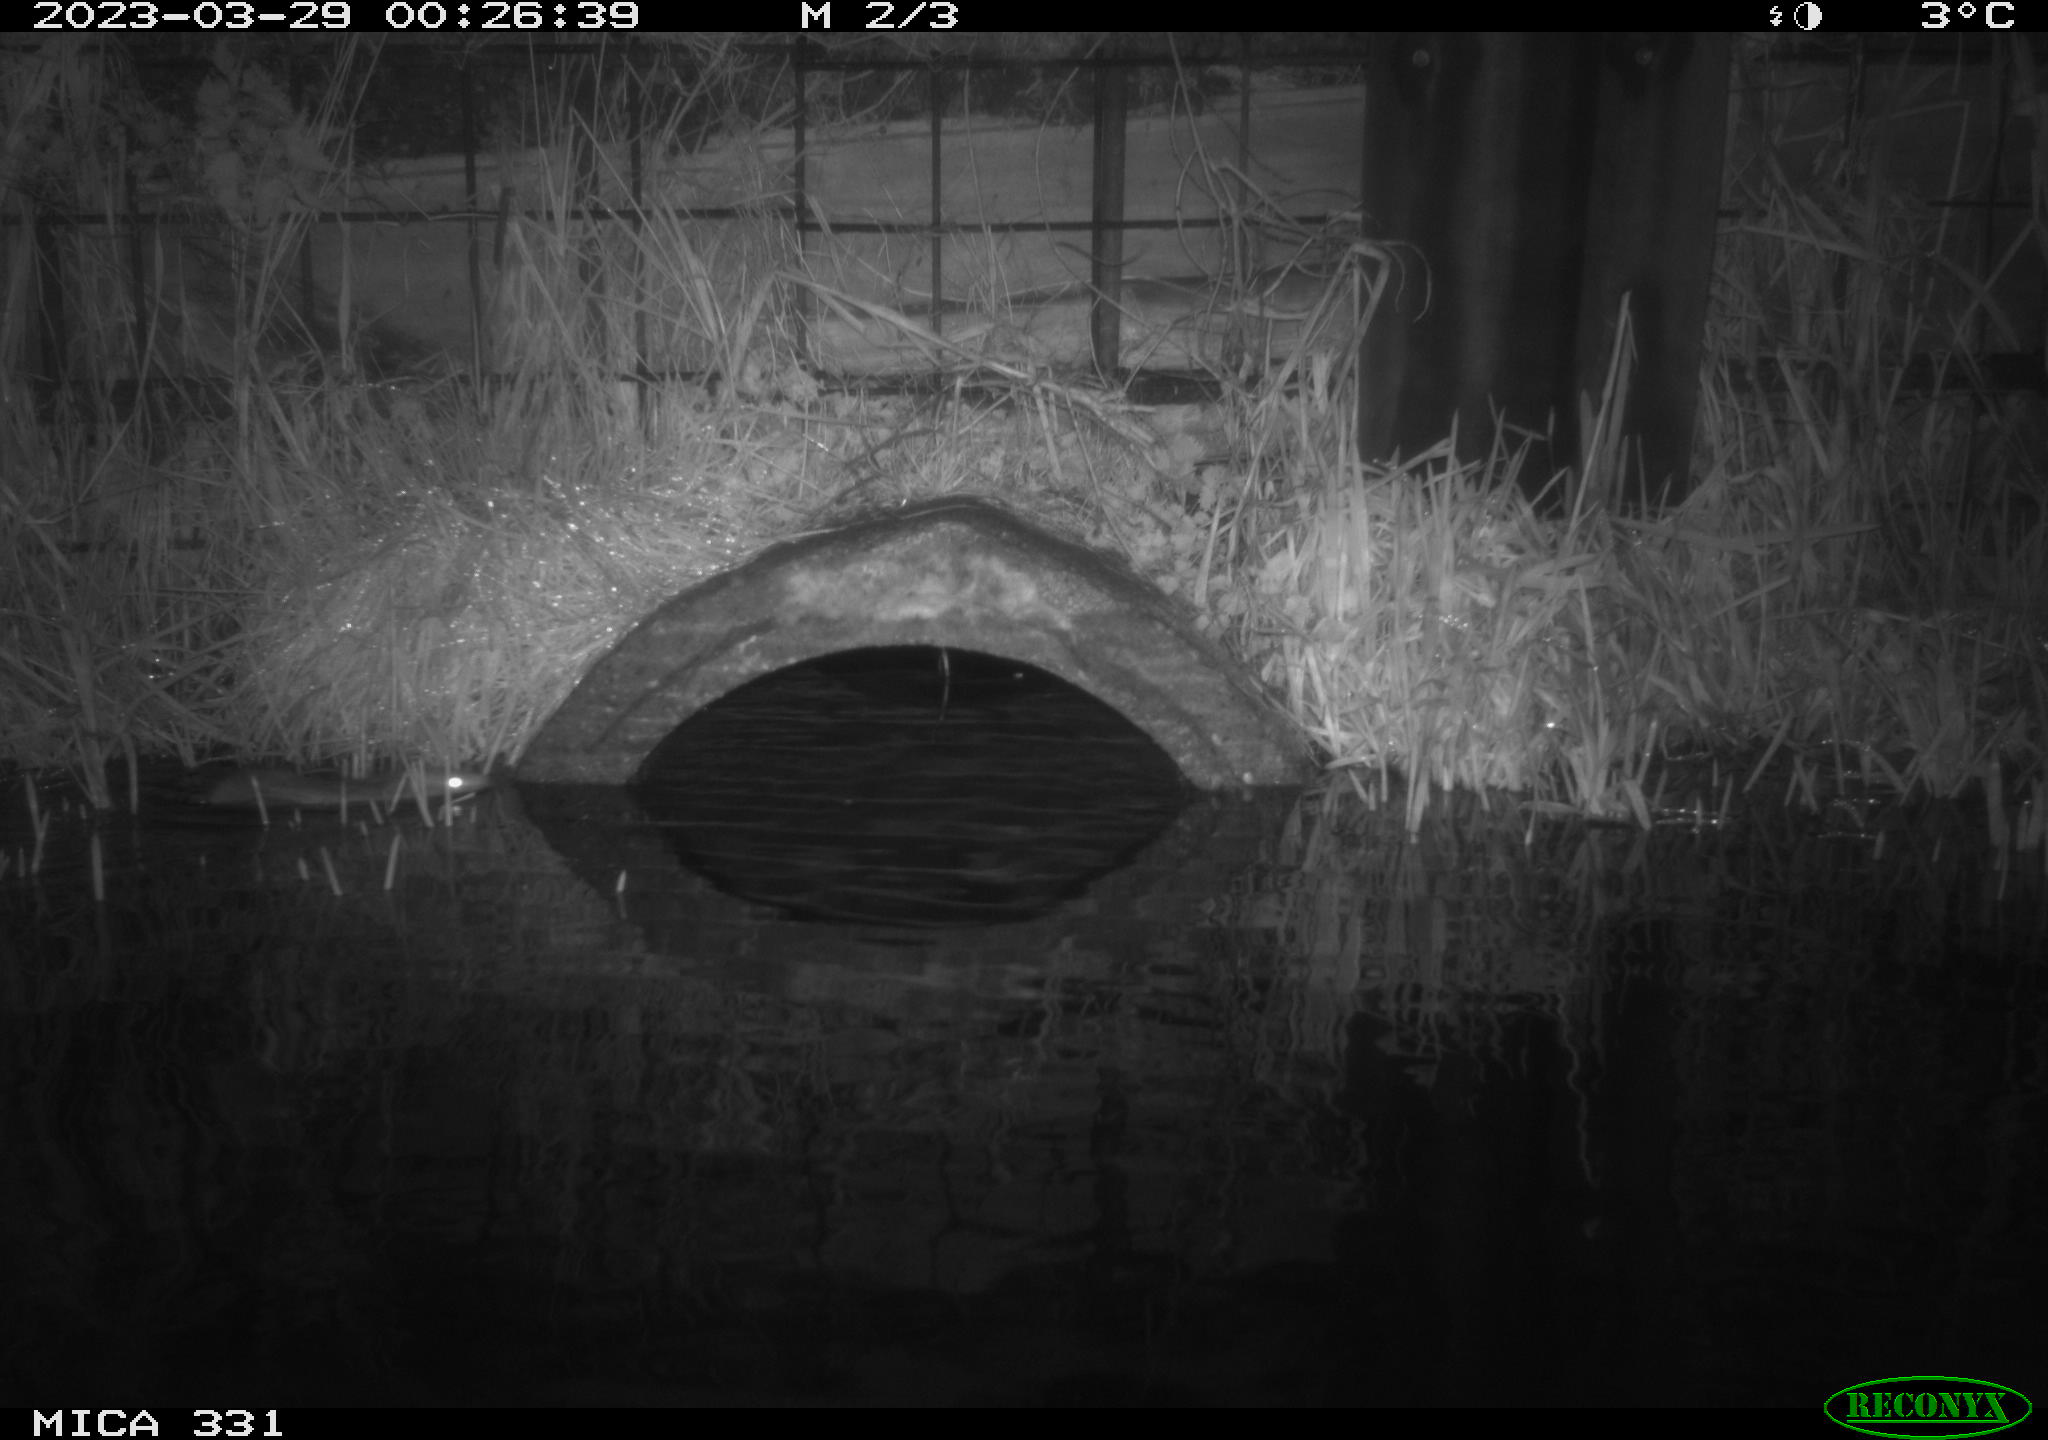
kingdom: Animalia
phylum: Chordata
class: Mammalia
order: Rodentia
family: Muridae
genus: Rattus
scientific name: Rattus norvegicus
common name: Brown rat
